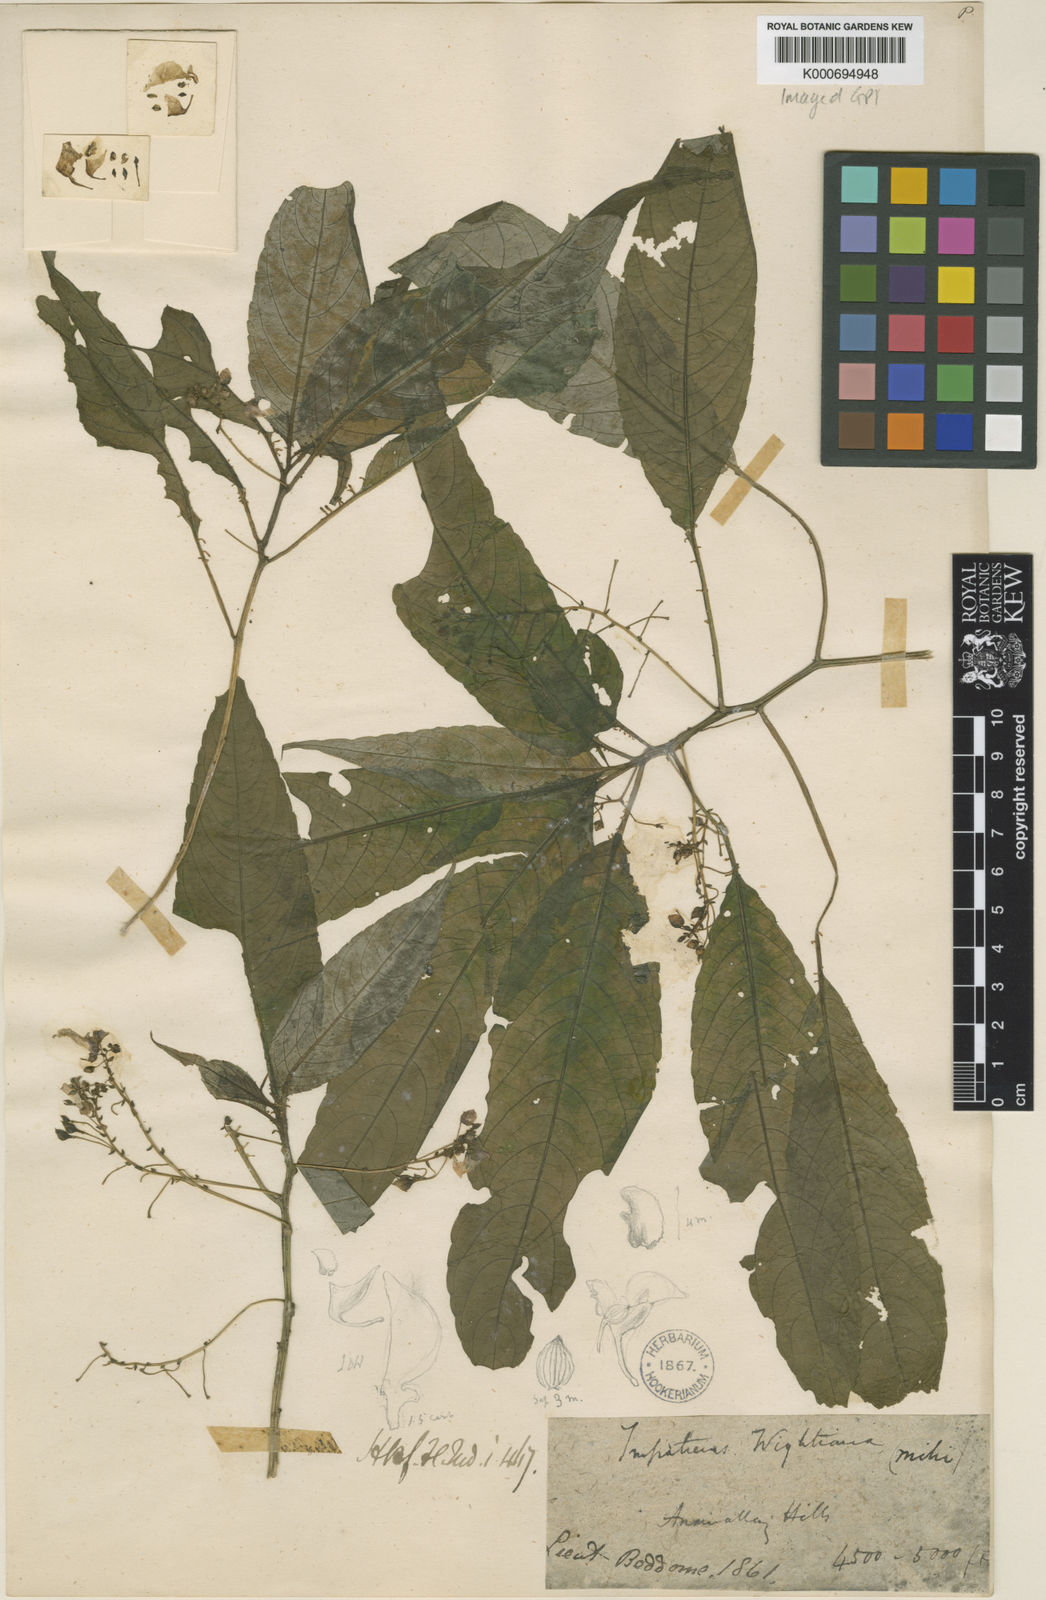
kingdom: Plantae
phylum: Tracheophyta
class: Magnoliopsida
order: Ericales
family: Balsaminaceae
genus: Impatiens
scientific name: Impatiens wightiana
